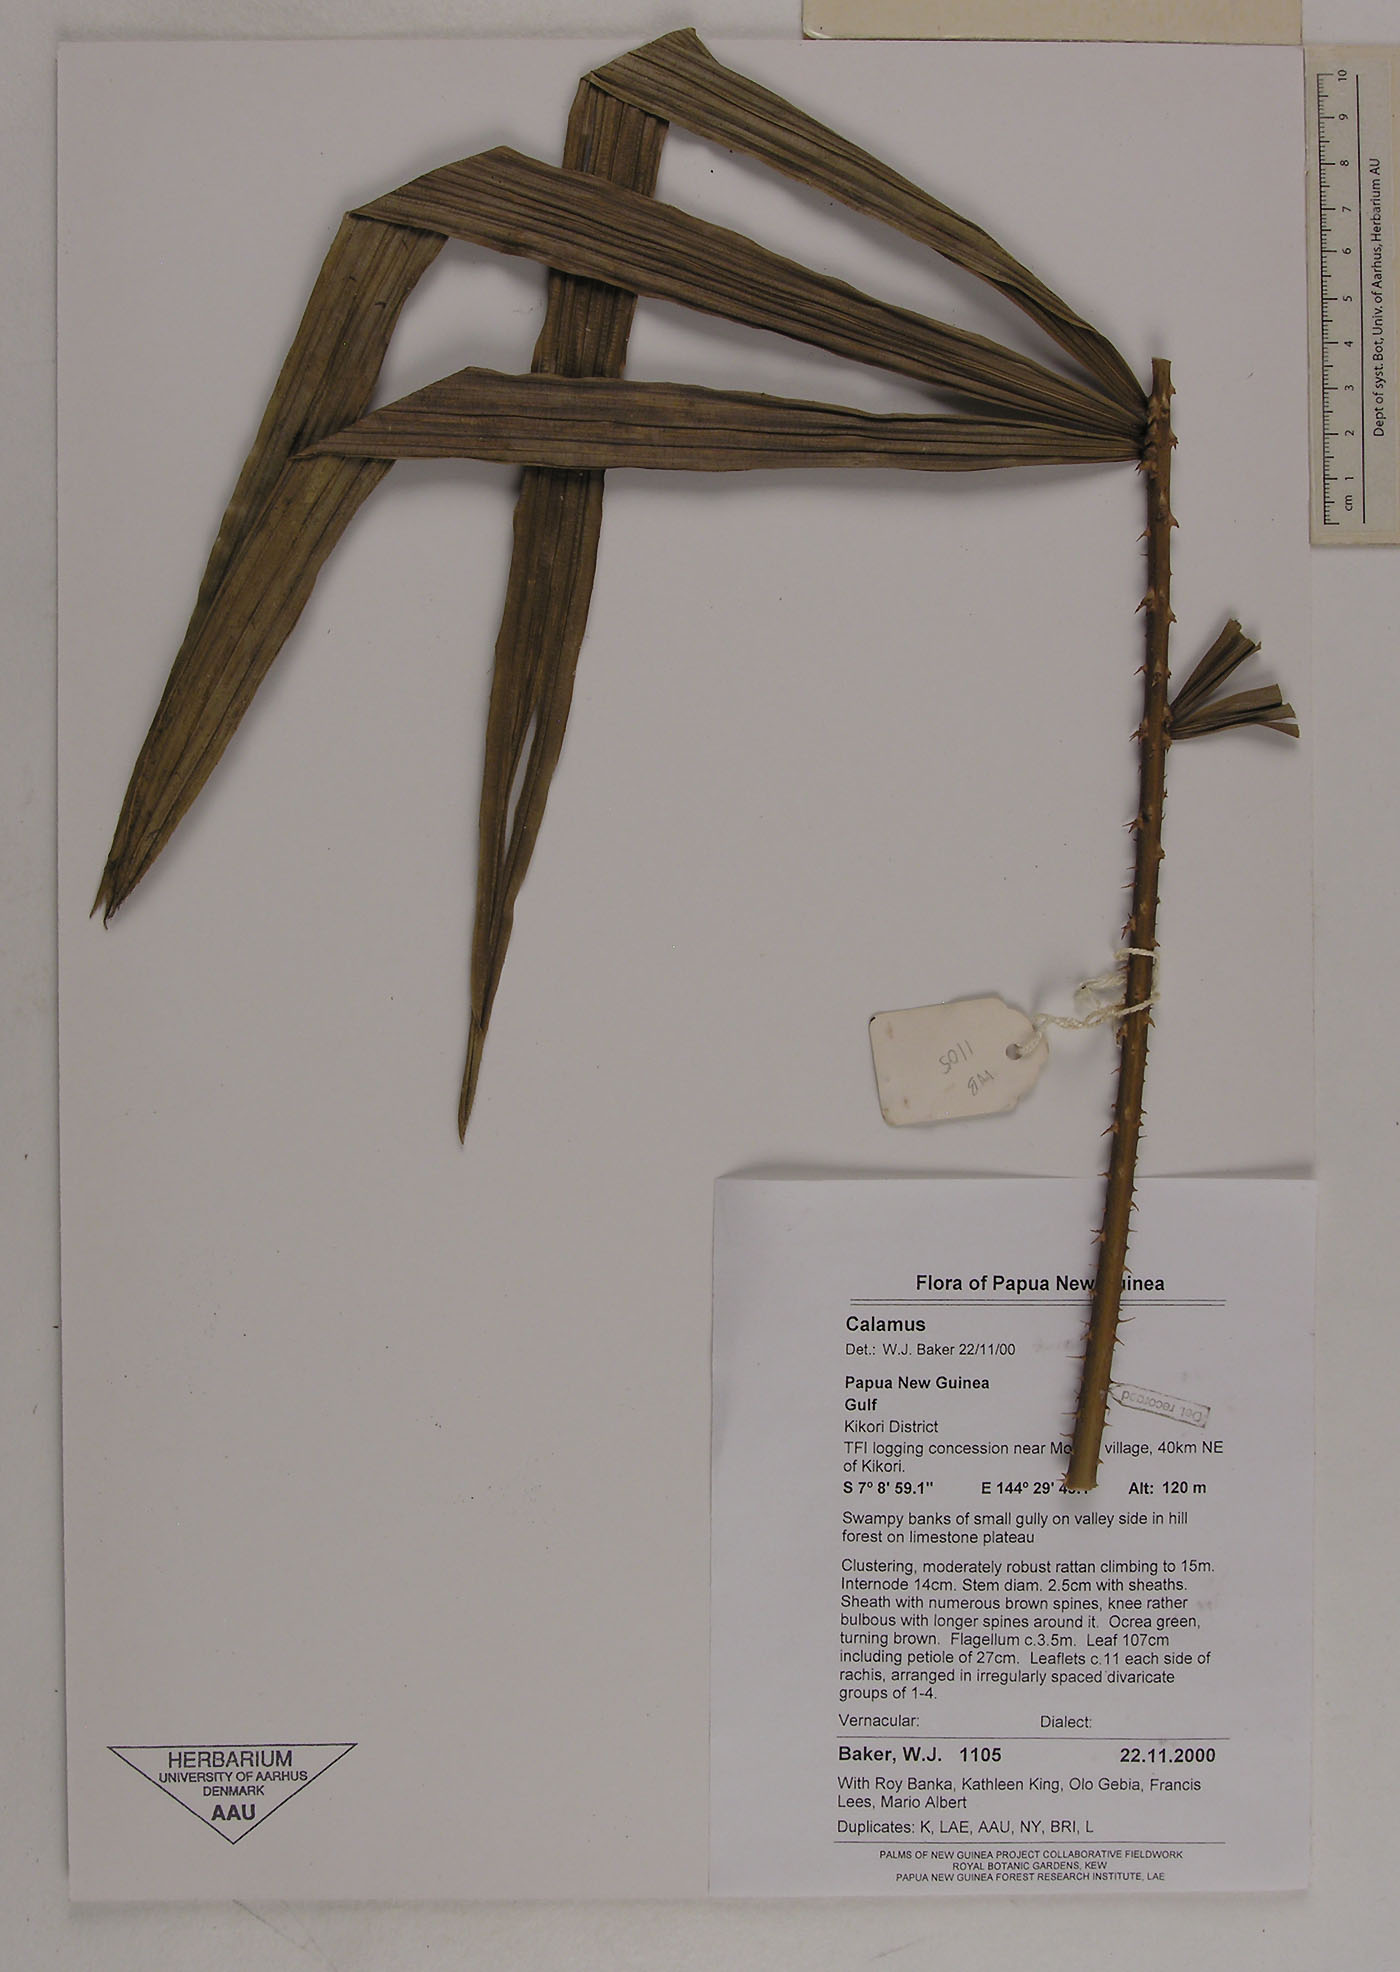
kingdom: Plantae
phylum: Tracheophyta
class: Liliopsida
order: Arecales
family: Arecaceae
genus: Calamus
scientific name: Calamus
